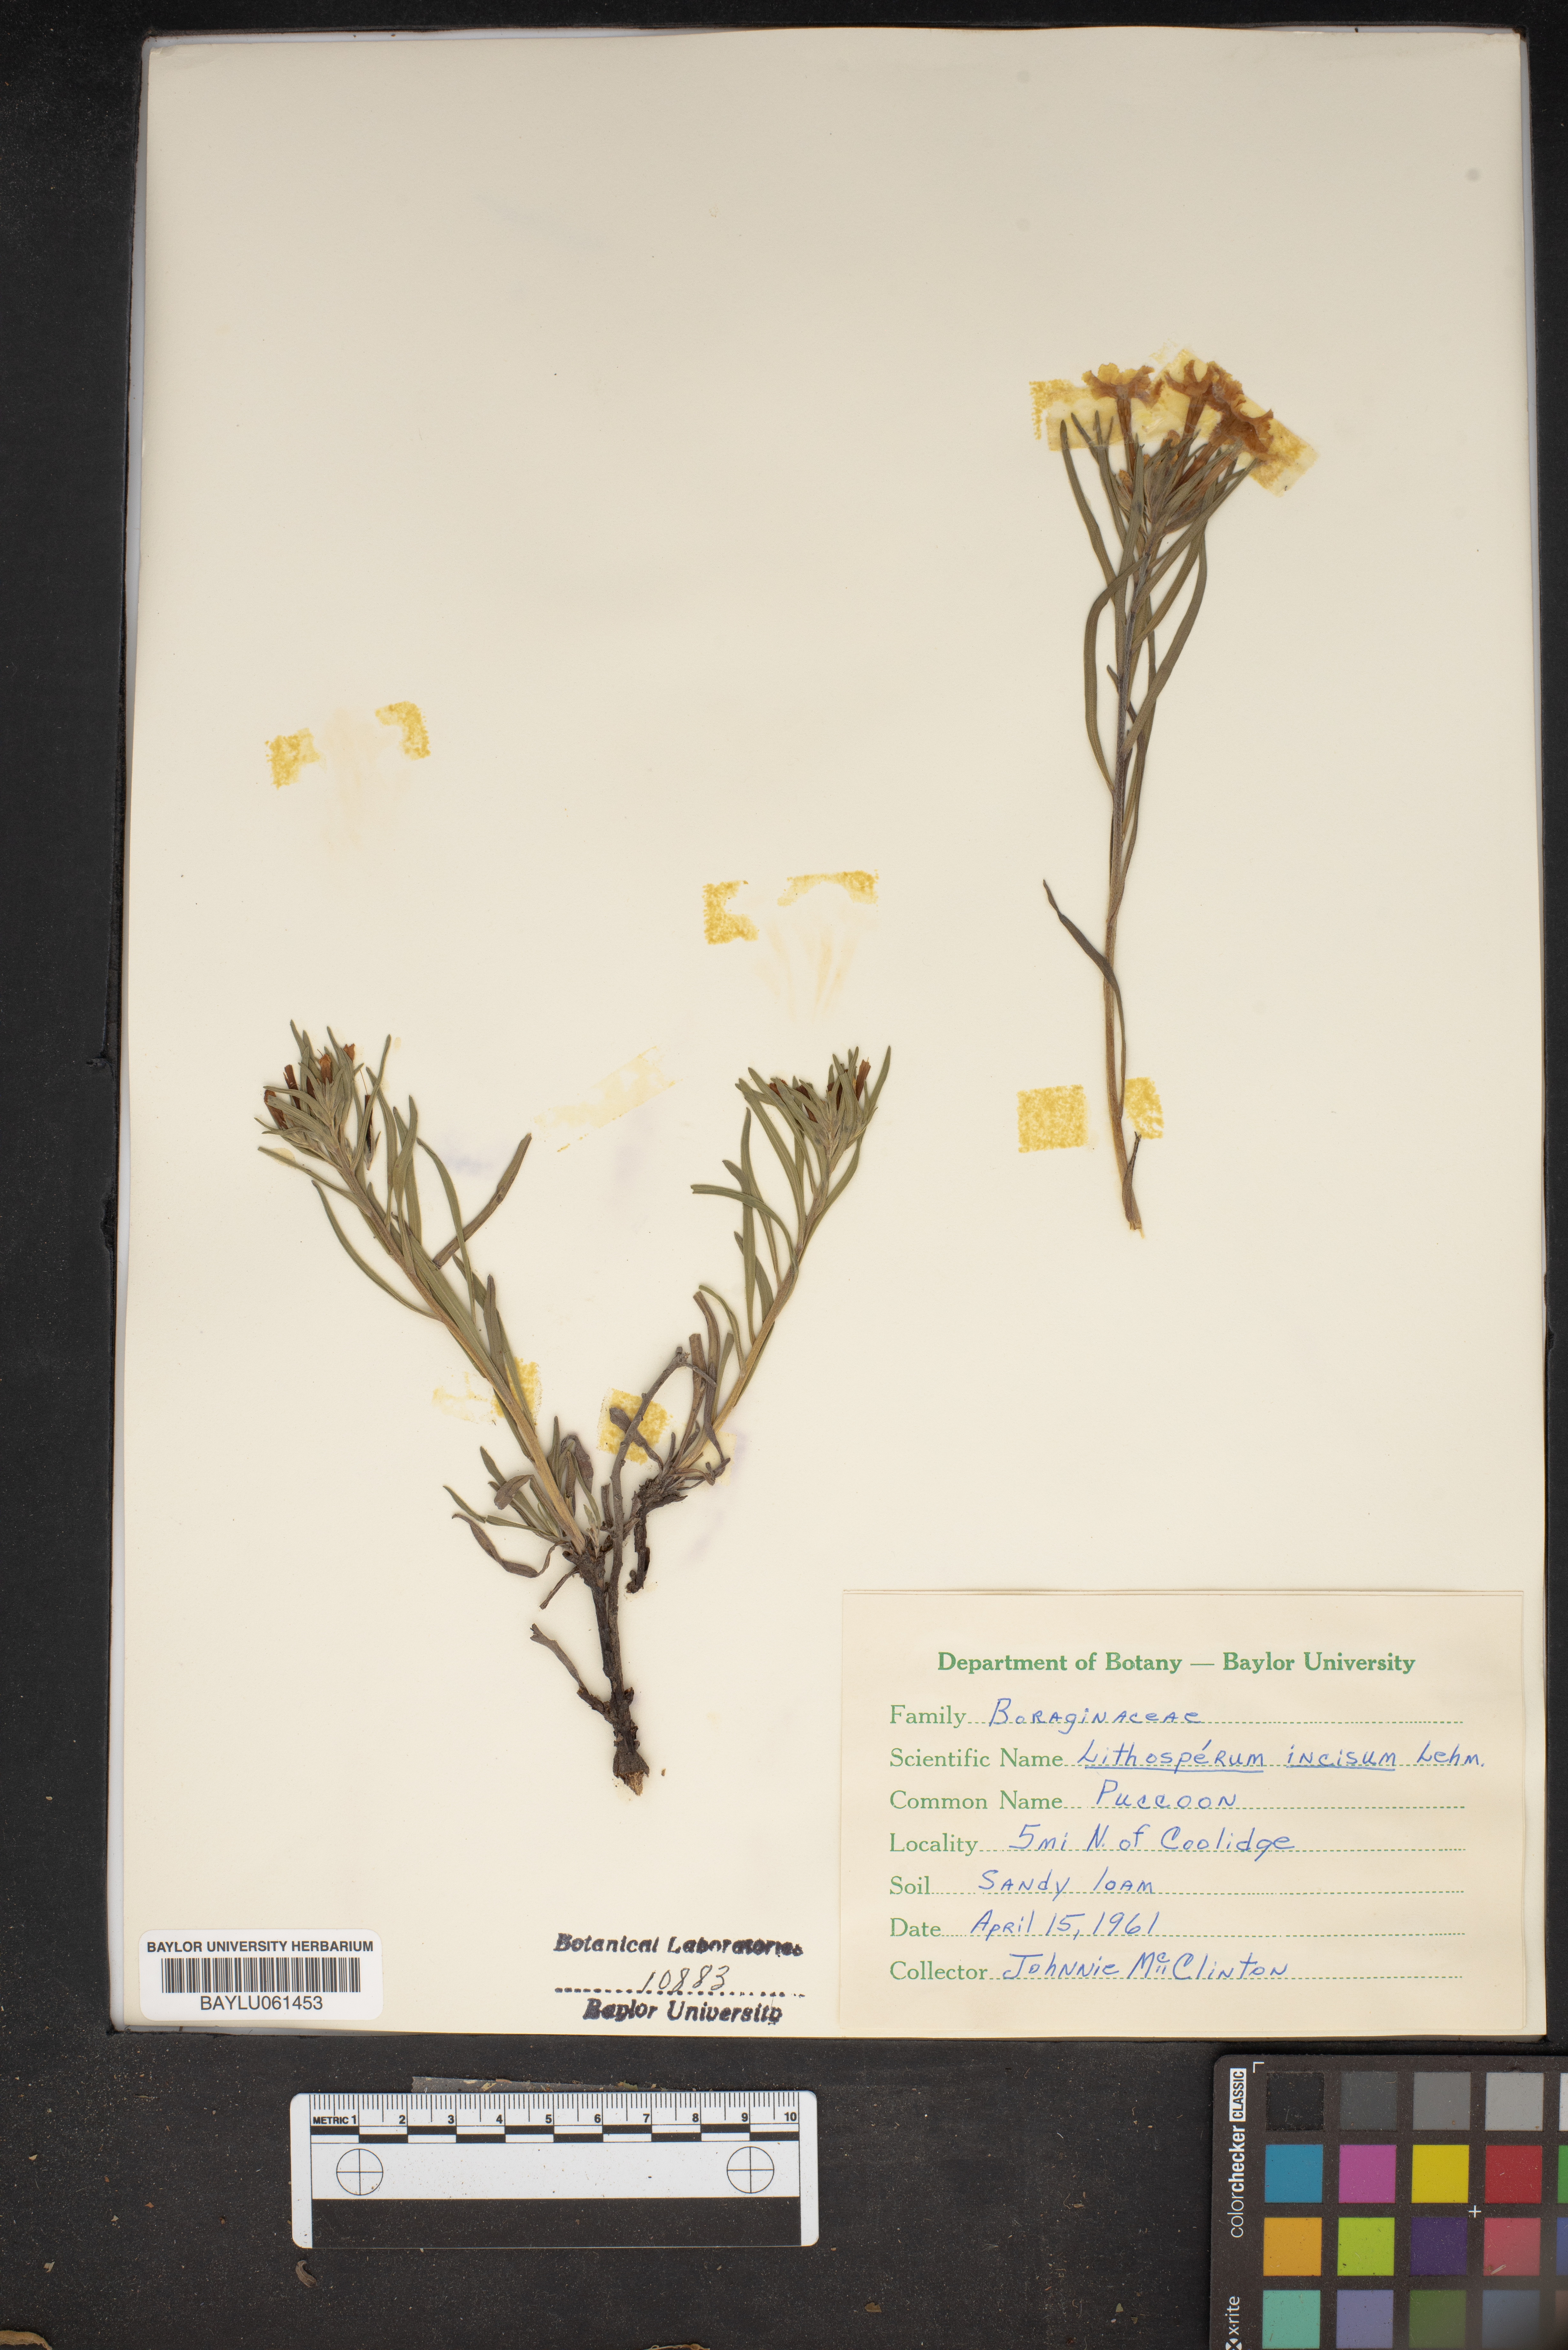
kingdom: Plantae
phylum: Tracheophyta
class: Magnoliopsida
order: Boraginales
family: Boraginaceae
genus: Lithospermum
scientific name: Lithospermum incisum
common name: Fringed gromwell
